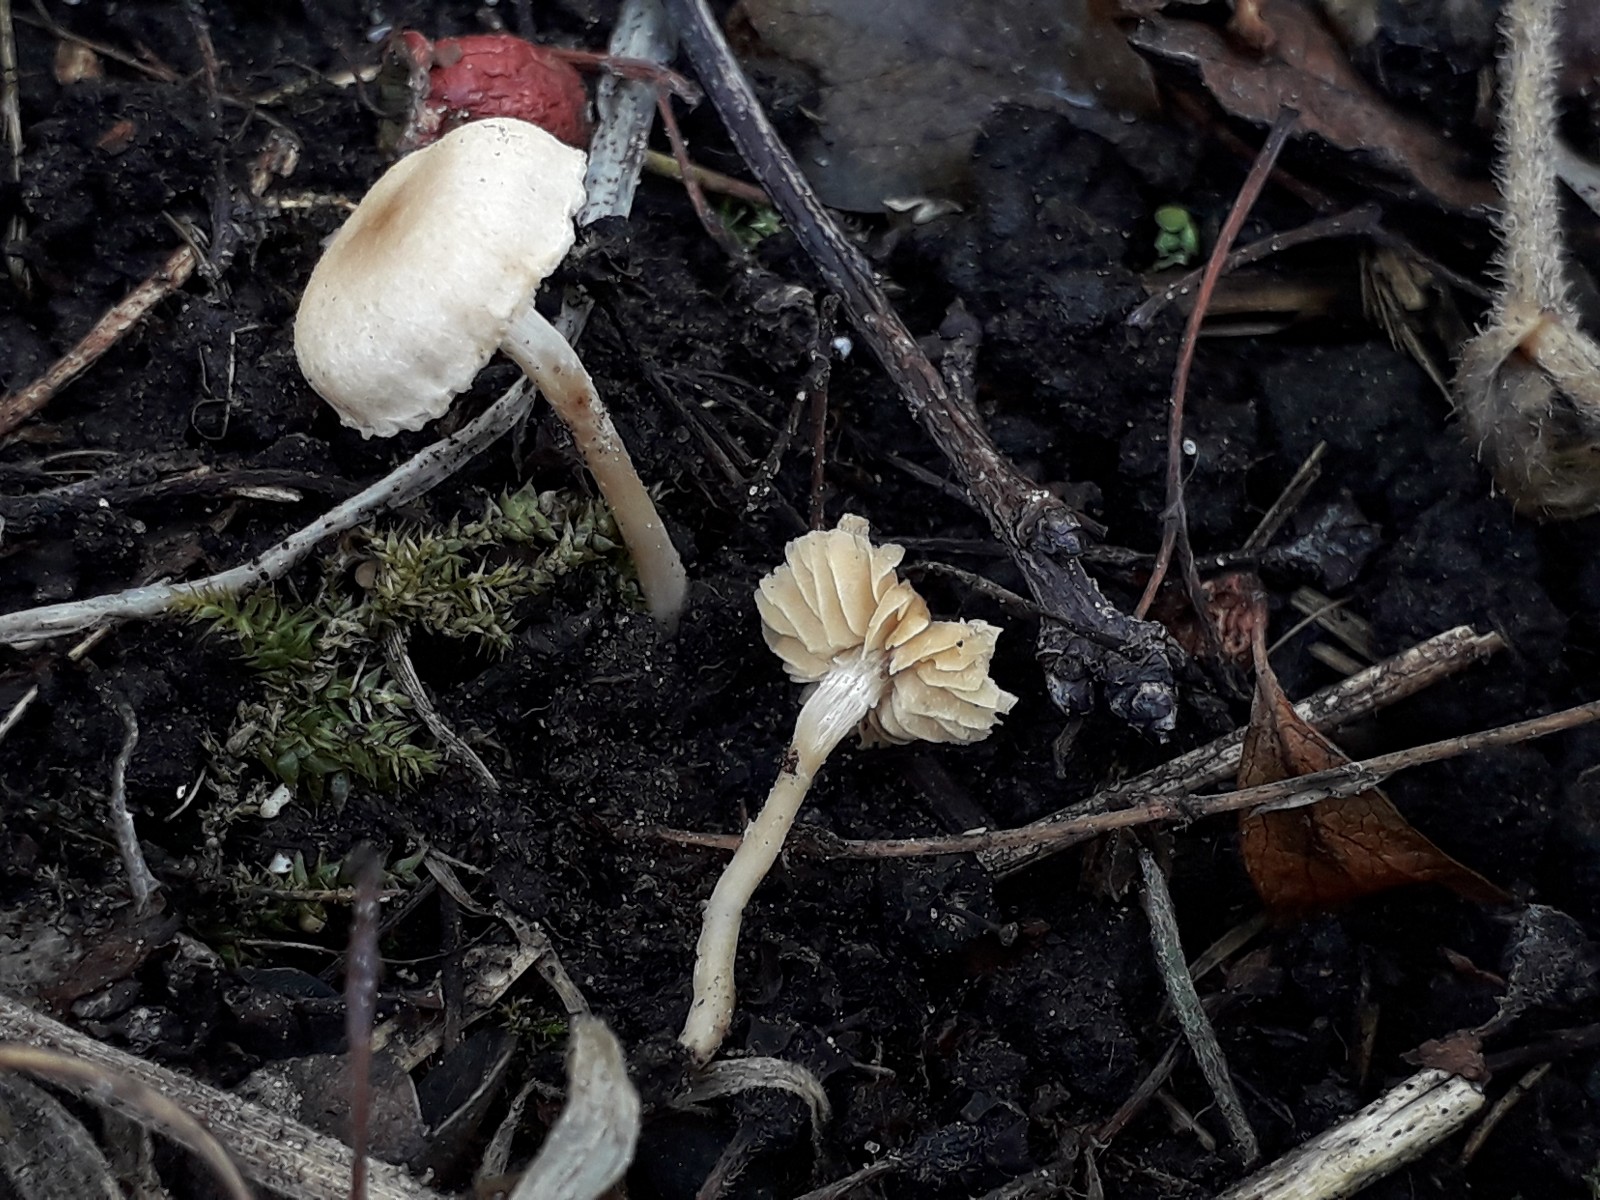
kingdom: Fungi
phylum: Basidiomycota
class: Agaricomycetes
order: Agaricales
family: Tubariaceae
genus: Tubaria
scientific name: Tubaria dispersa
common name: tjørne-fnughat
